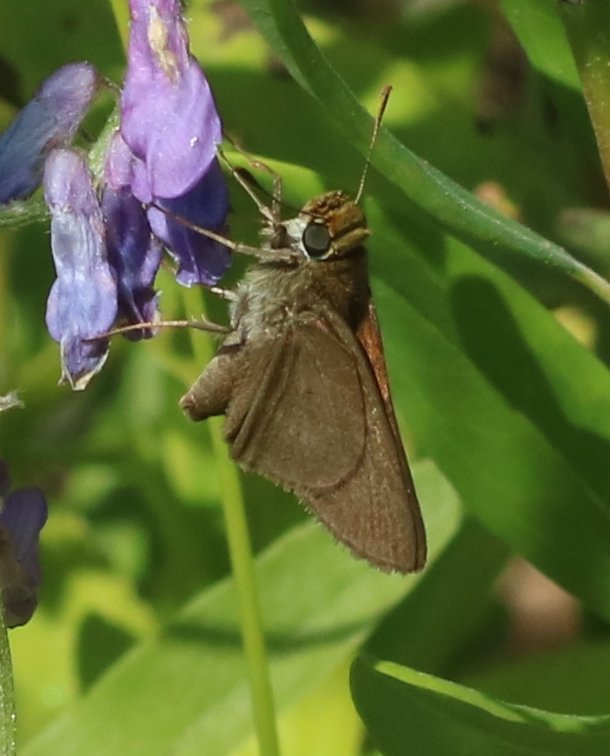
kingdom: Animalia
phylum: Arthropoda
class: Insecta
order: Lepidoptera
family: Hesperiidae
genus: Euphyes
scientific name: Euphyes vestris
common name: Dun Skipper
